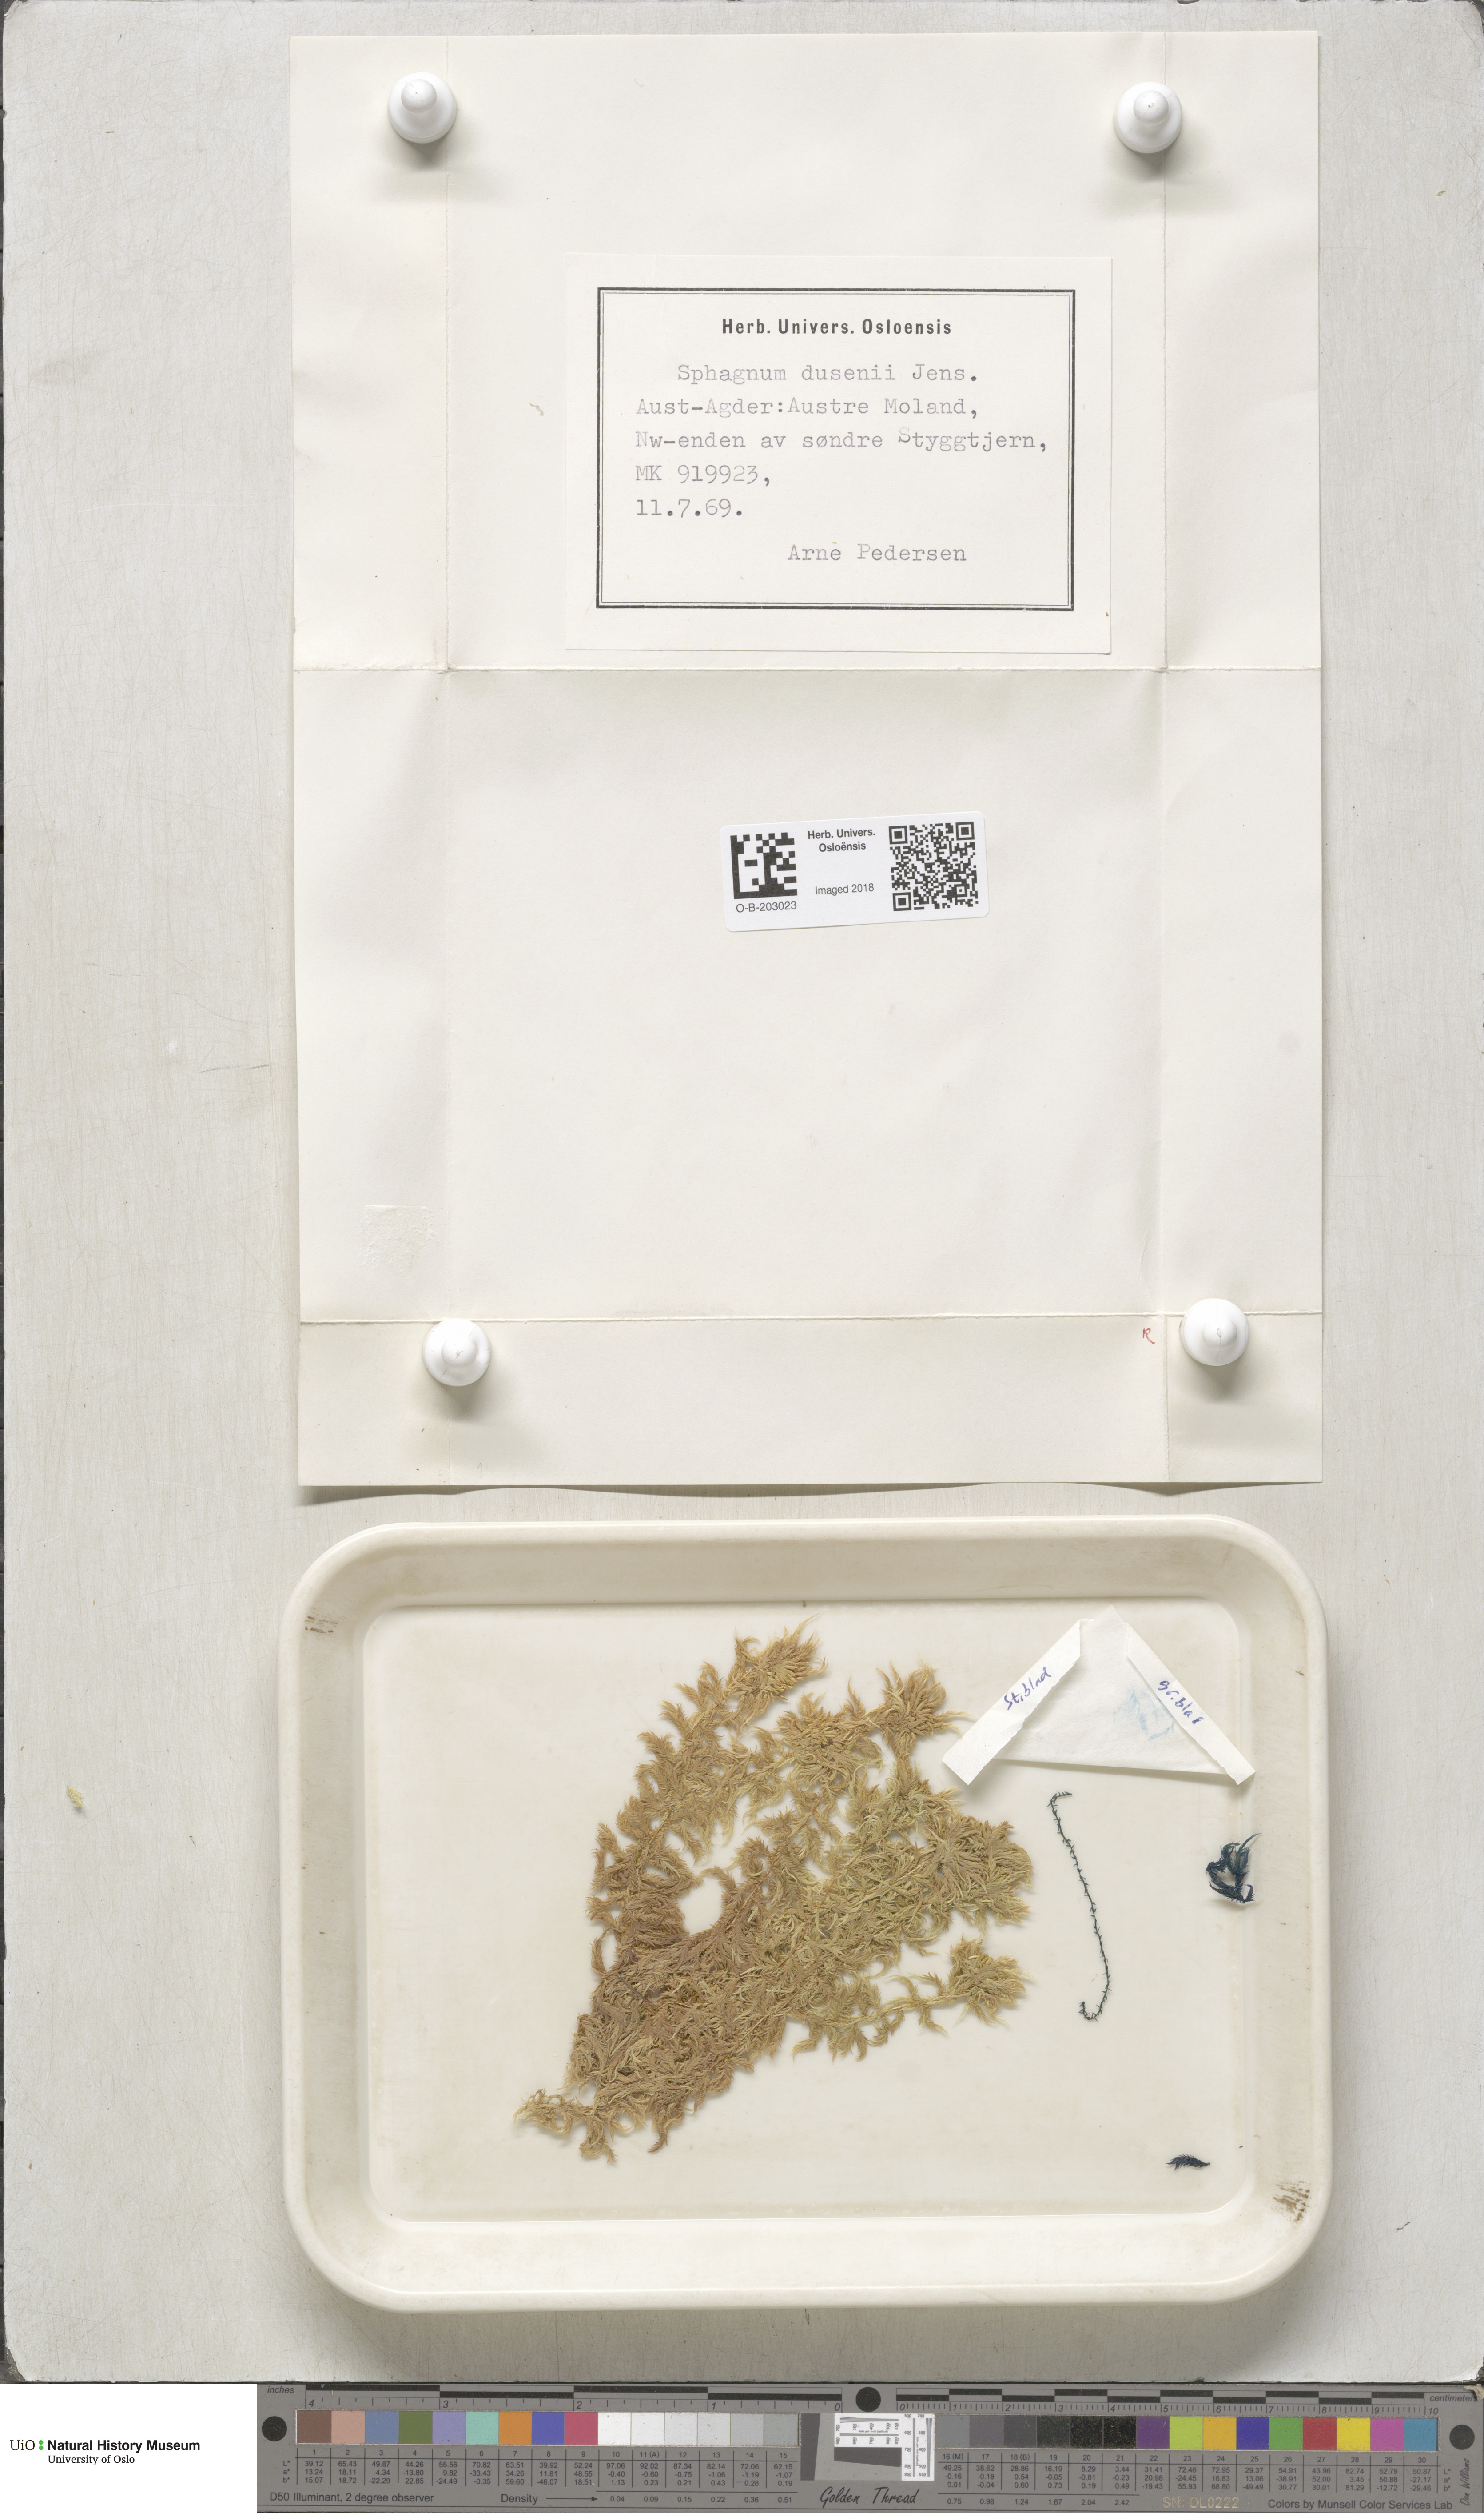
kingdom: Plantae
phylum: Bryophyta
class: Sphagnopsida
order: Sphagnales
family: Sphagnaceae
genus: Sphagnum
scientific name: Sphagnum majus
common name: Olive bog-moss
